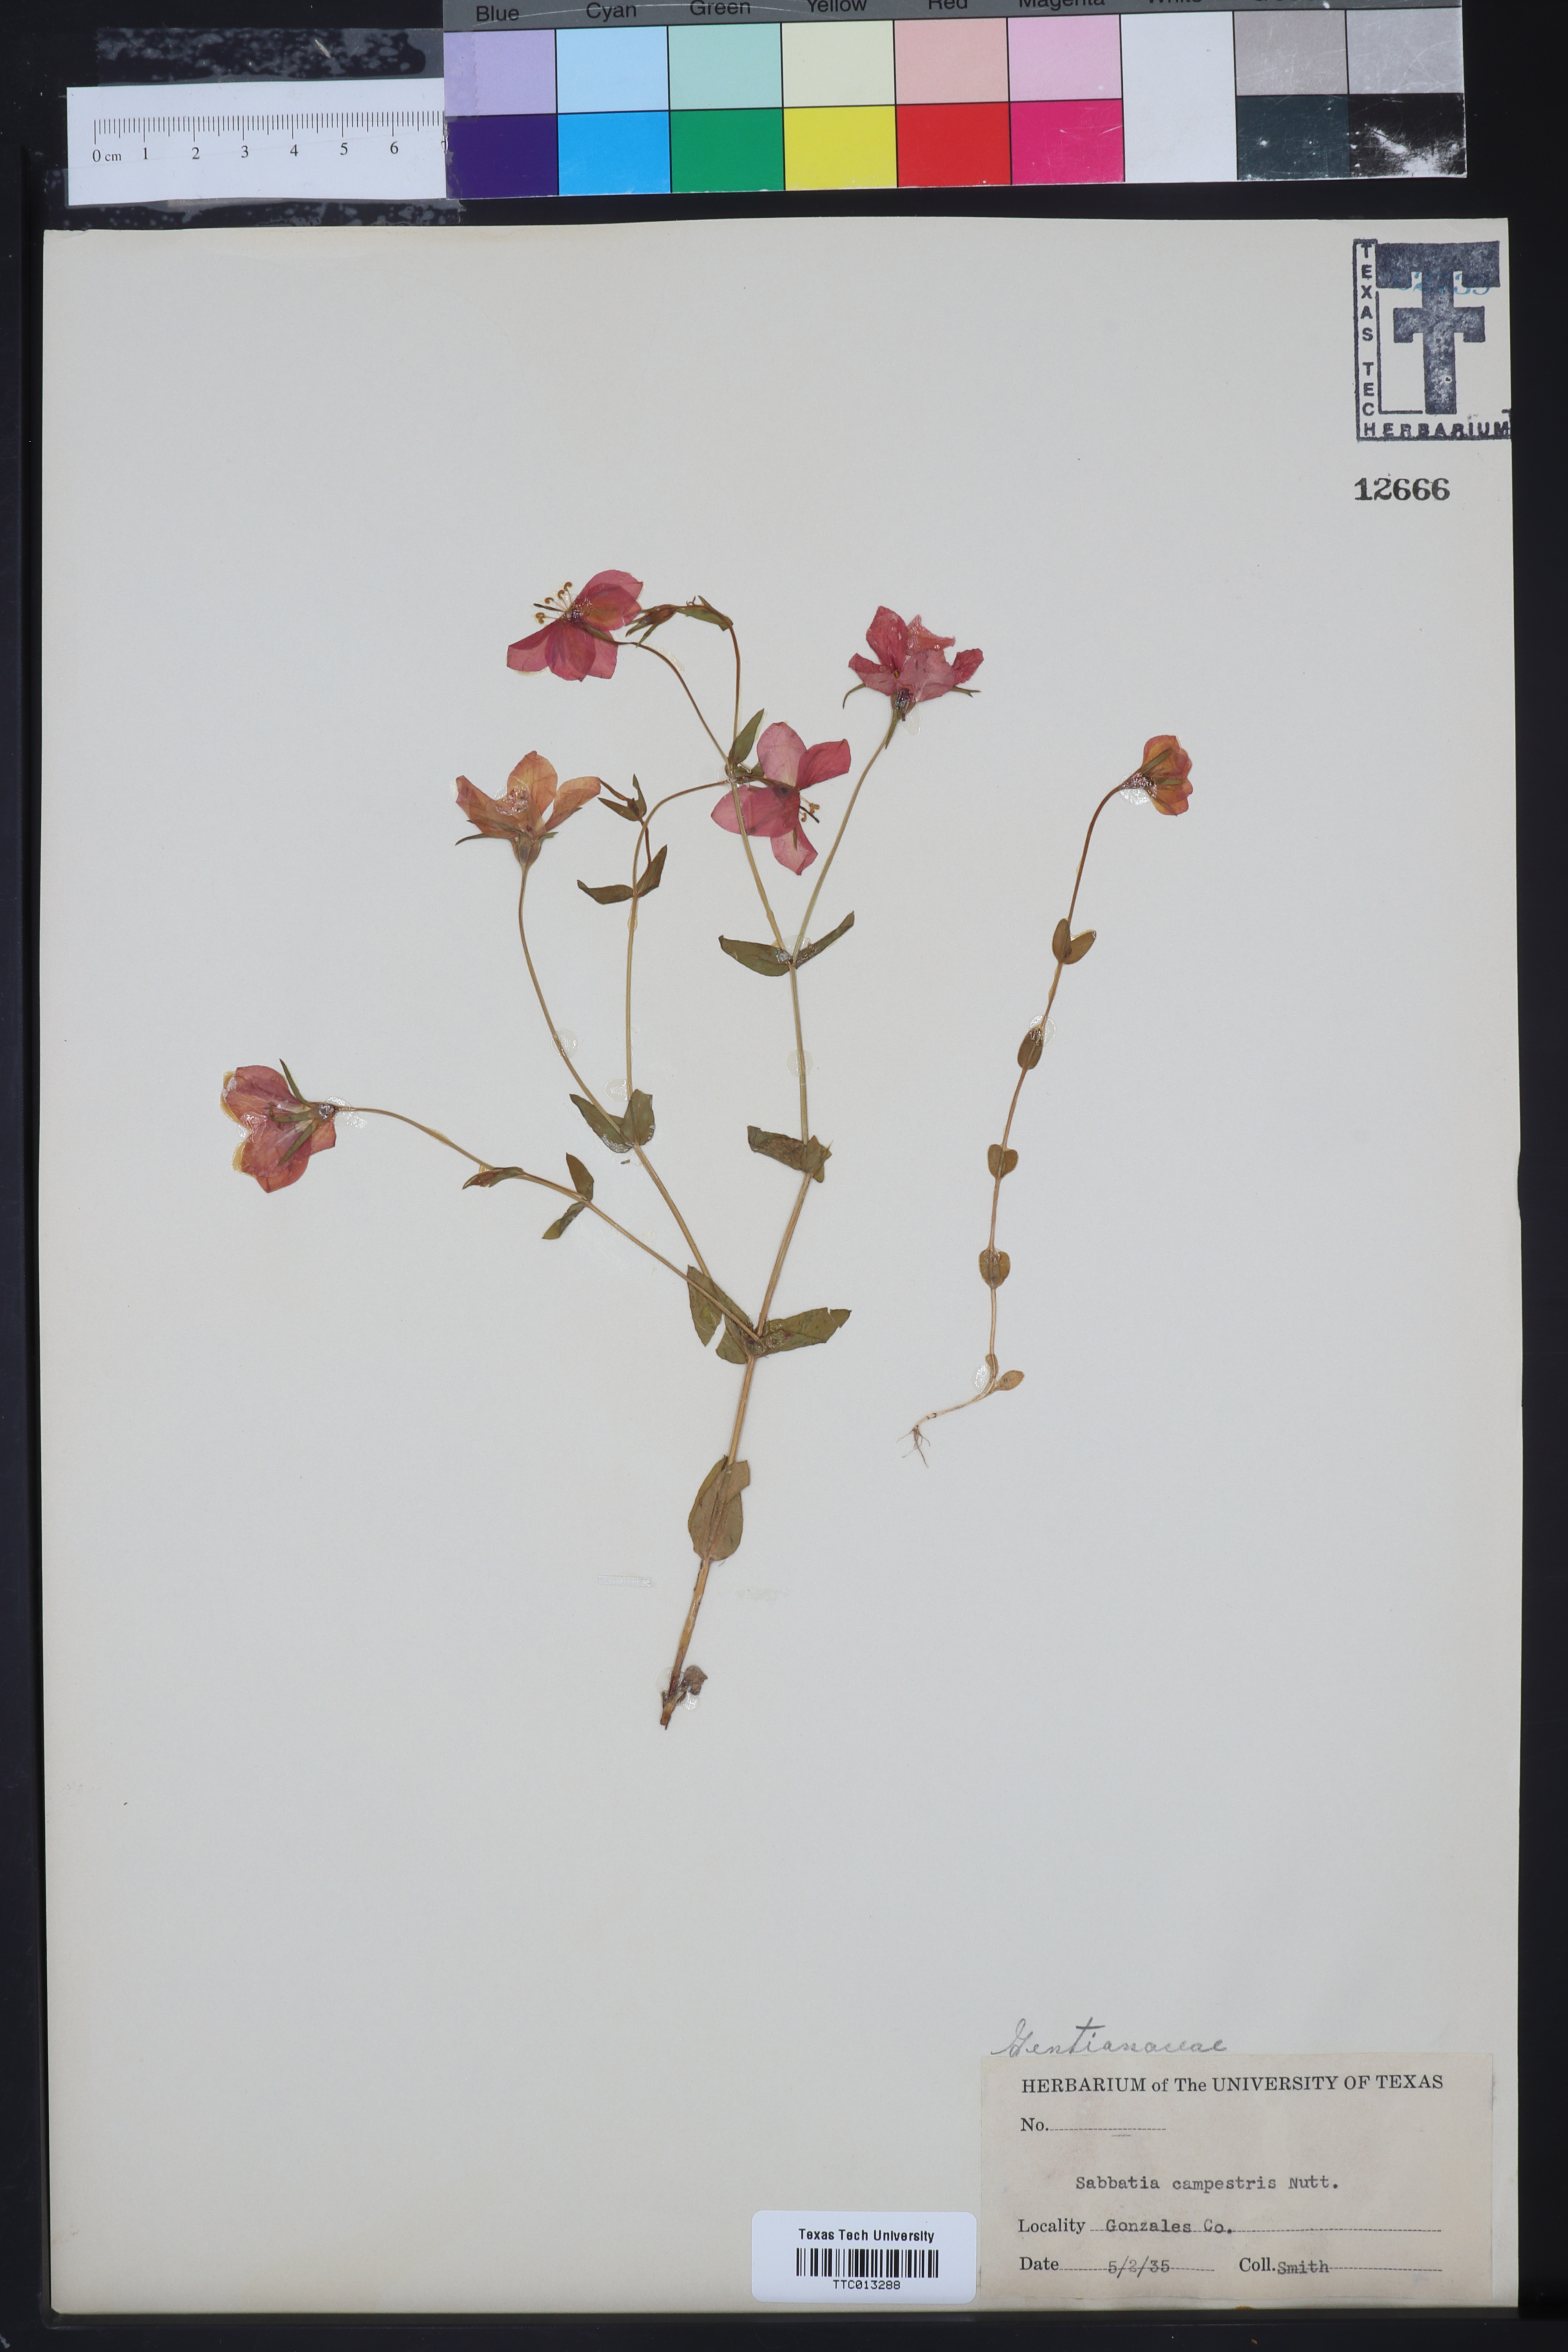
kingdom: Plantae
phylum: Tracheophyta
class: Magnoliopsida
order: Gentianales
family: Gentianaceae
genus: Sabatia
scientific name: Sabatia campestris
